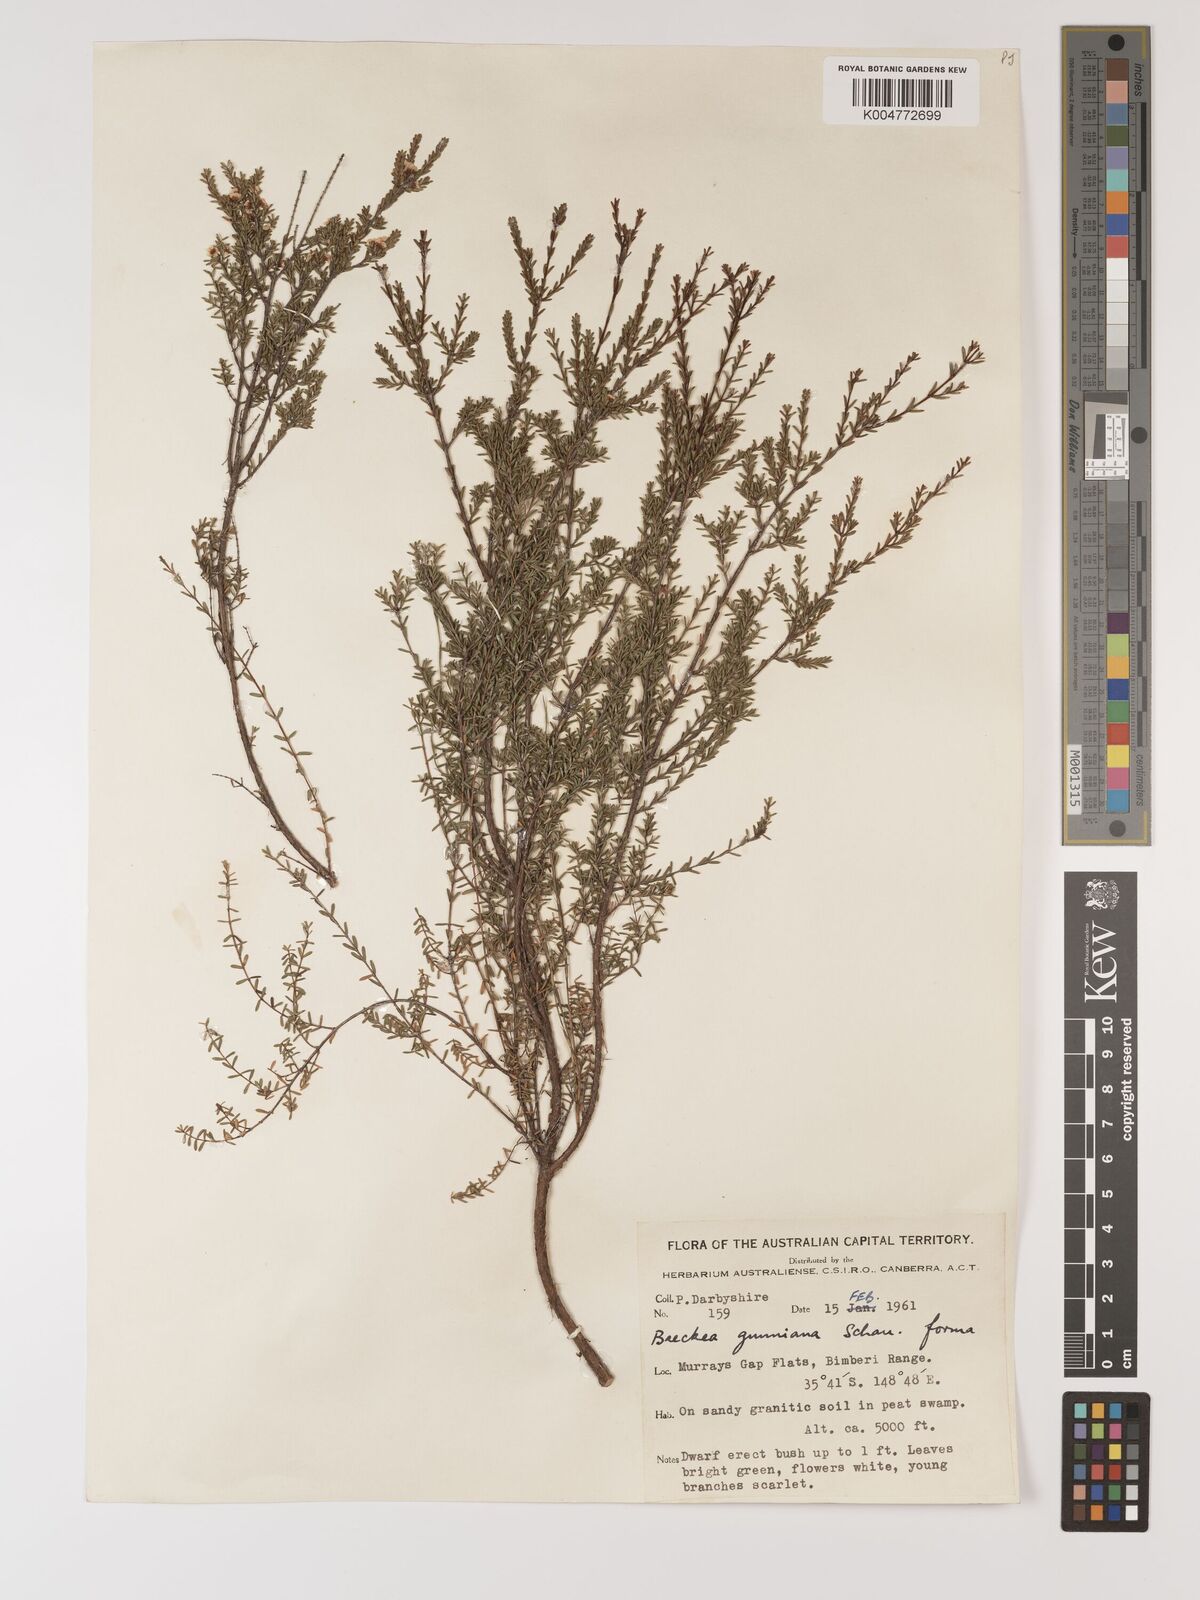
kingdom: Plantae
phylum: Tracheophyta
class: Magnoliopsida
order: Myrtales
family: Myrtaceae
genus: Baeckea
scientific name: Baeckea gunniana
